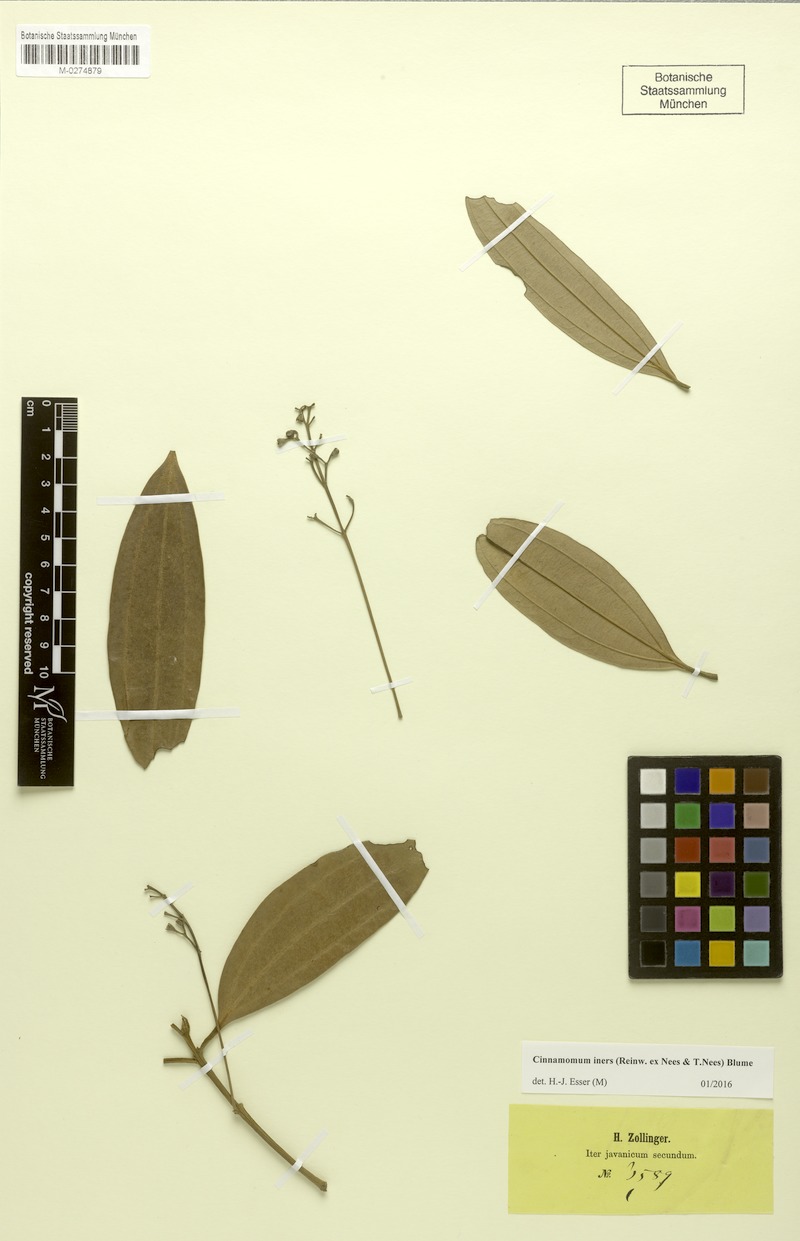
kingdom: Plantae
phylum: Tracheophyta
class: Magnoliopsida
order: Laurales
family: Lauraceae
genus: Cinnamomum
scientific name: Cinnamomum iners
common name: Wild cinnamon
